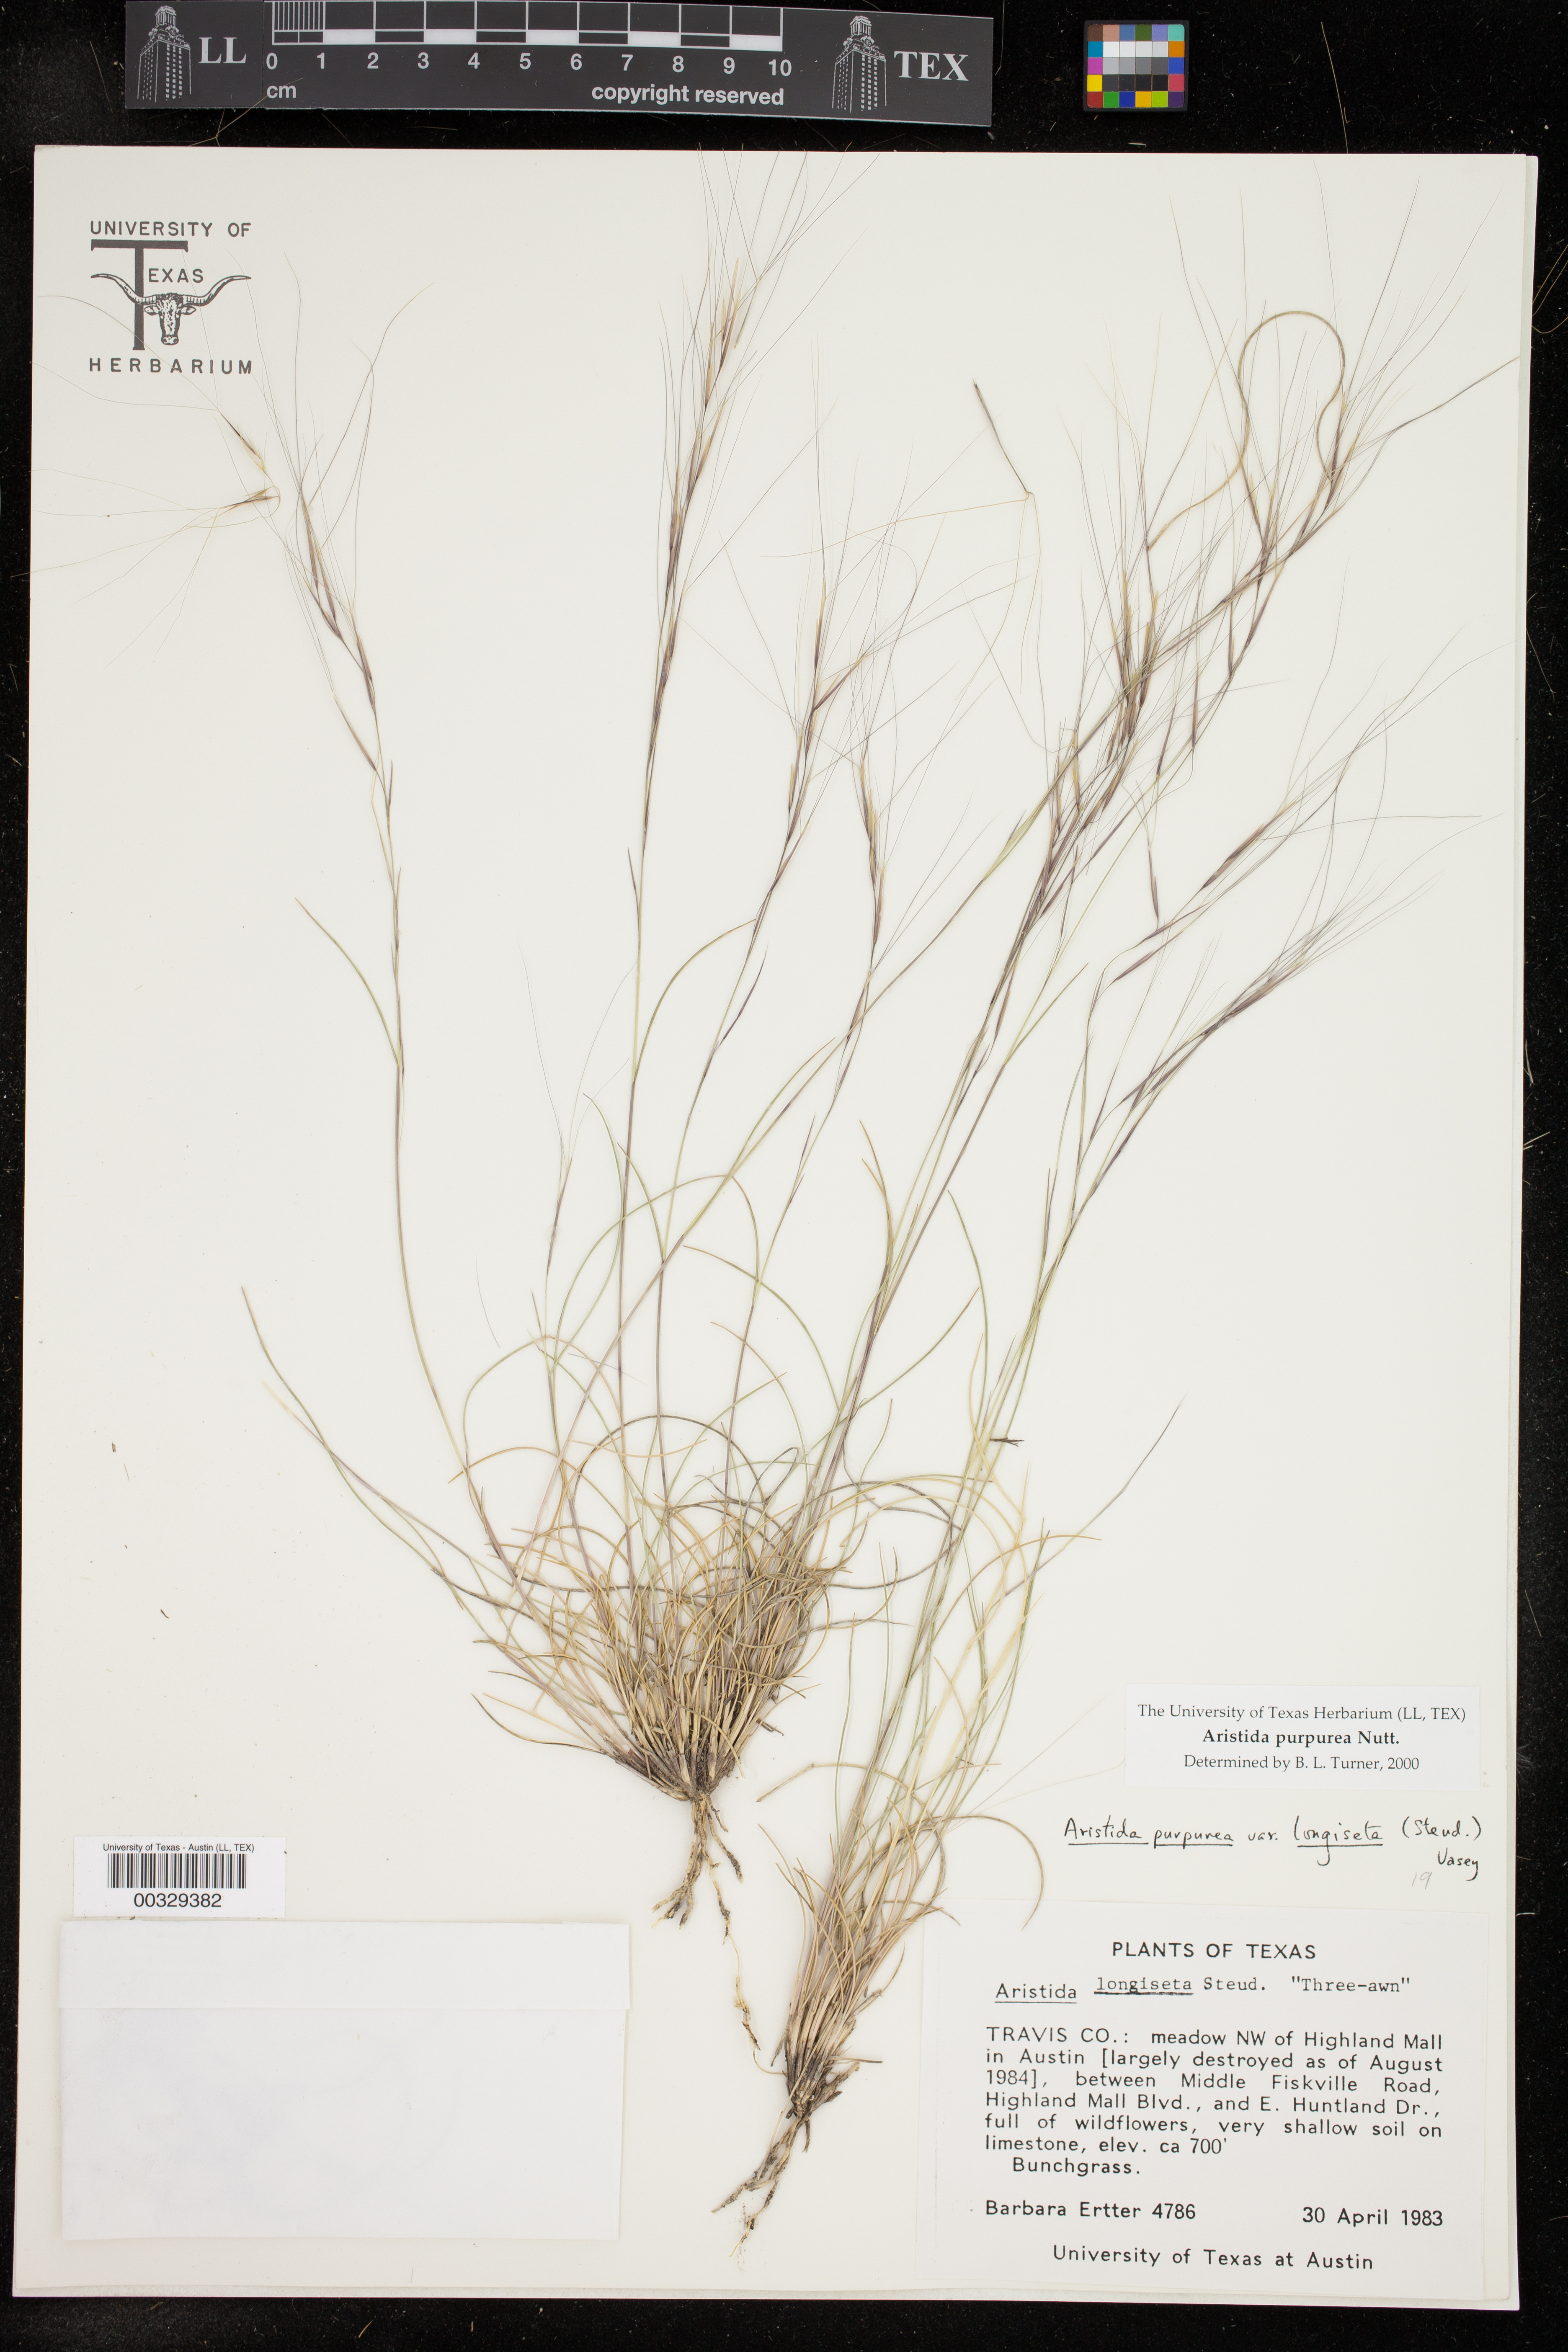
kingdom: Plantae
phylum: Tracheophyta
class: Liliopsida
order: Poales
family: Poaceae
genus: Aristida
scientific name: Aristida purpurea
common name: Purple threeawn
